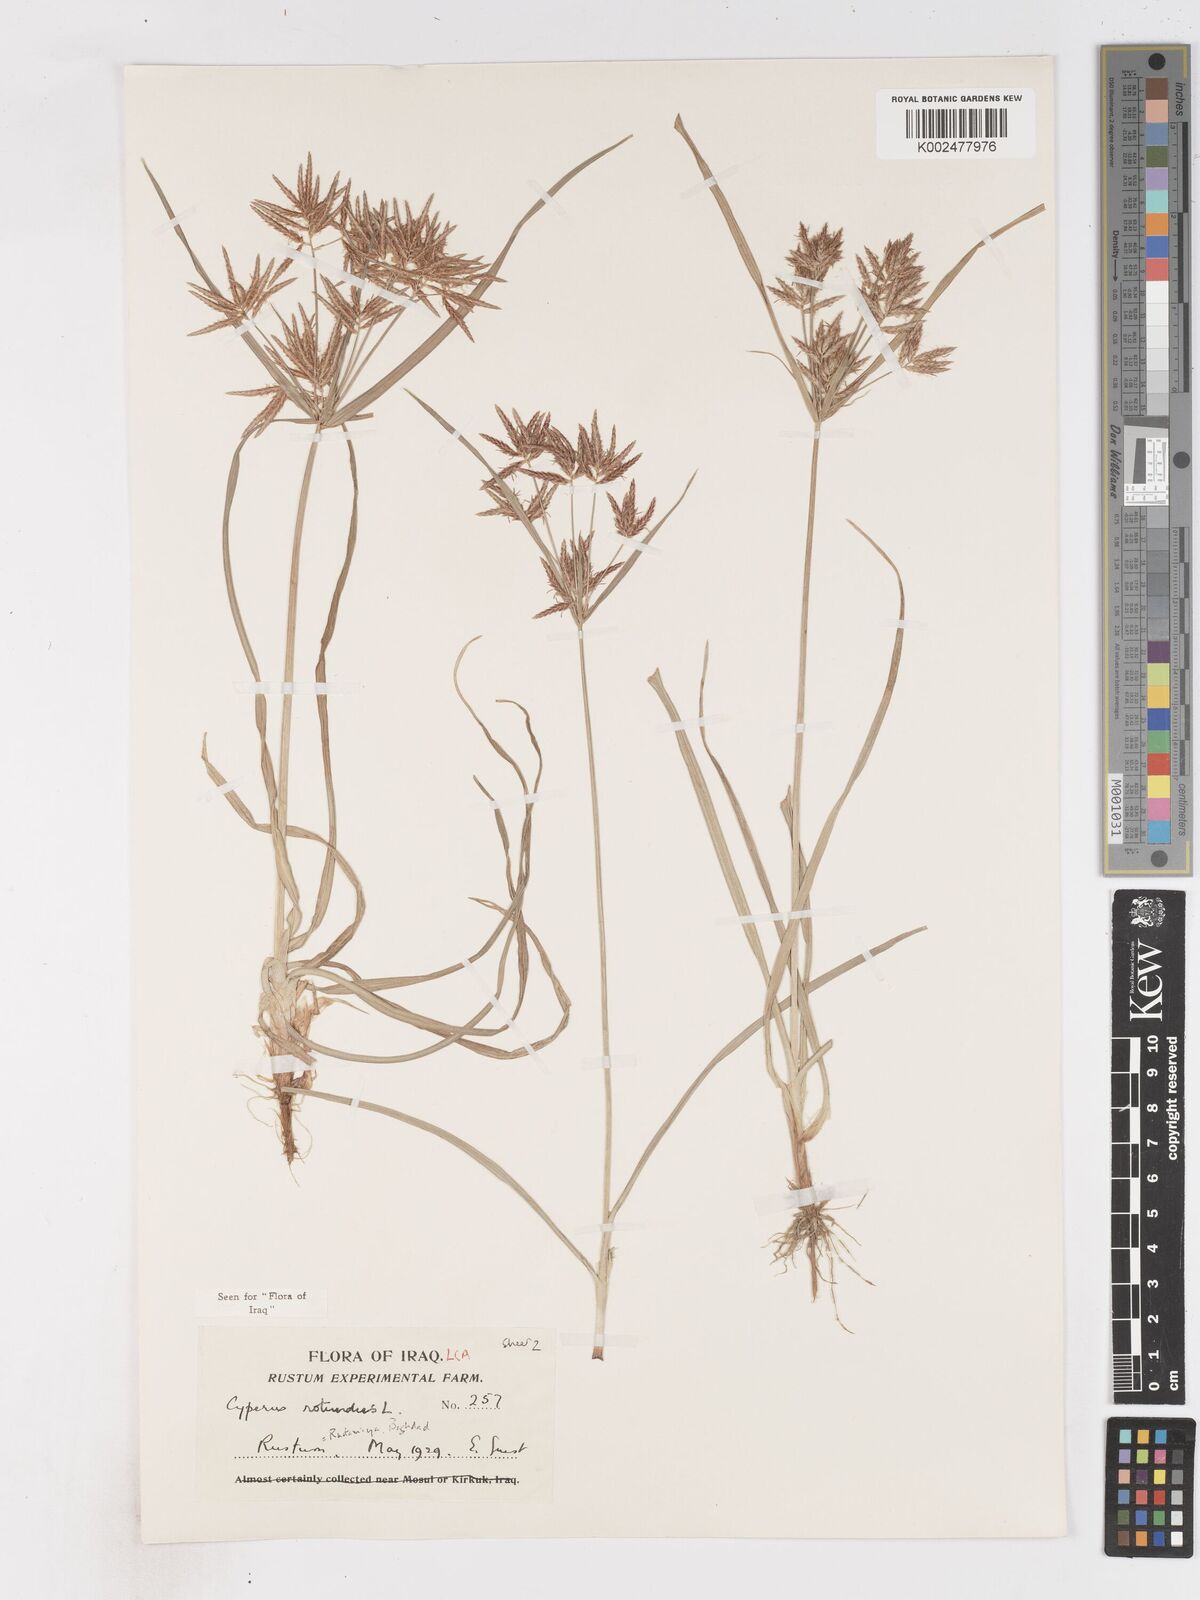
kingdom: Plantae
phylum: Tracheophyta
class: Liliopsida
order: Poales
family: Cyperaceae
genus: Cyperus
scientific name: Cyperus rotundus
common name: Nutgrass
